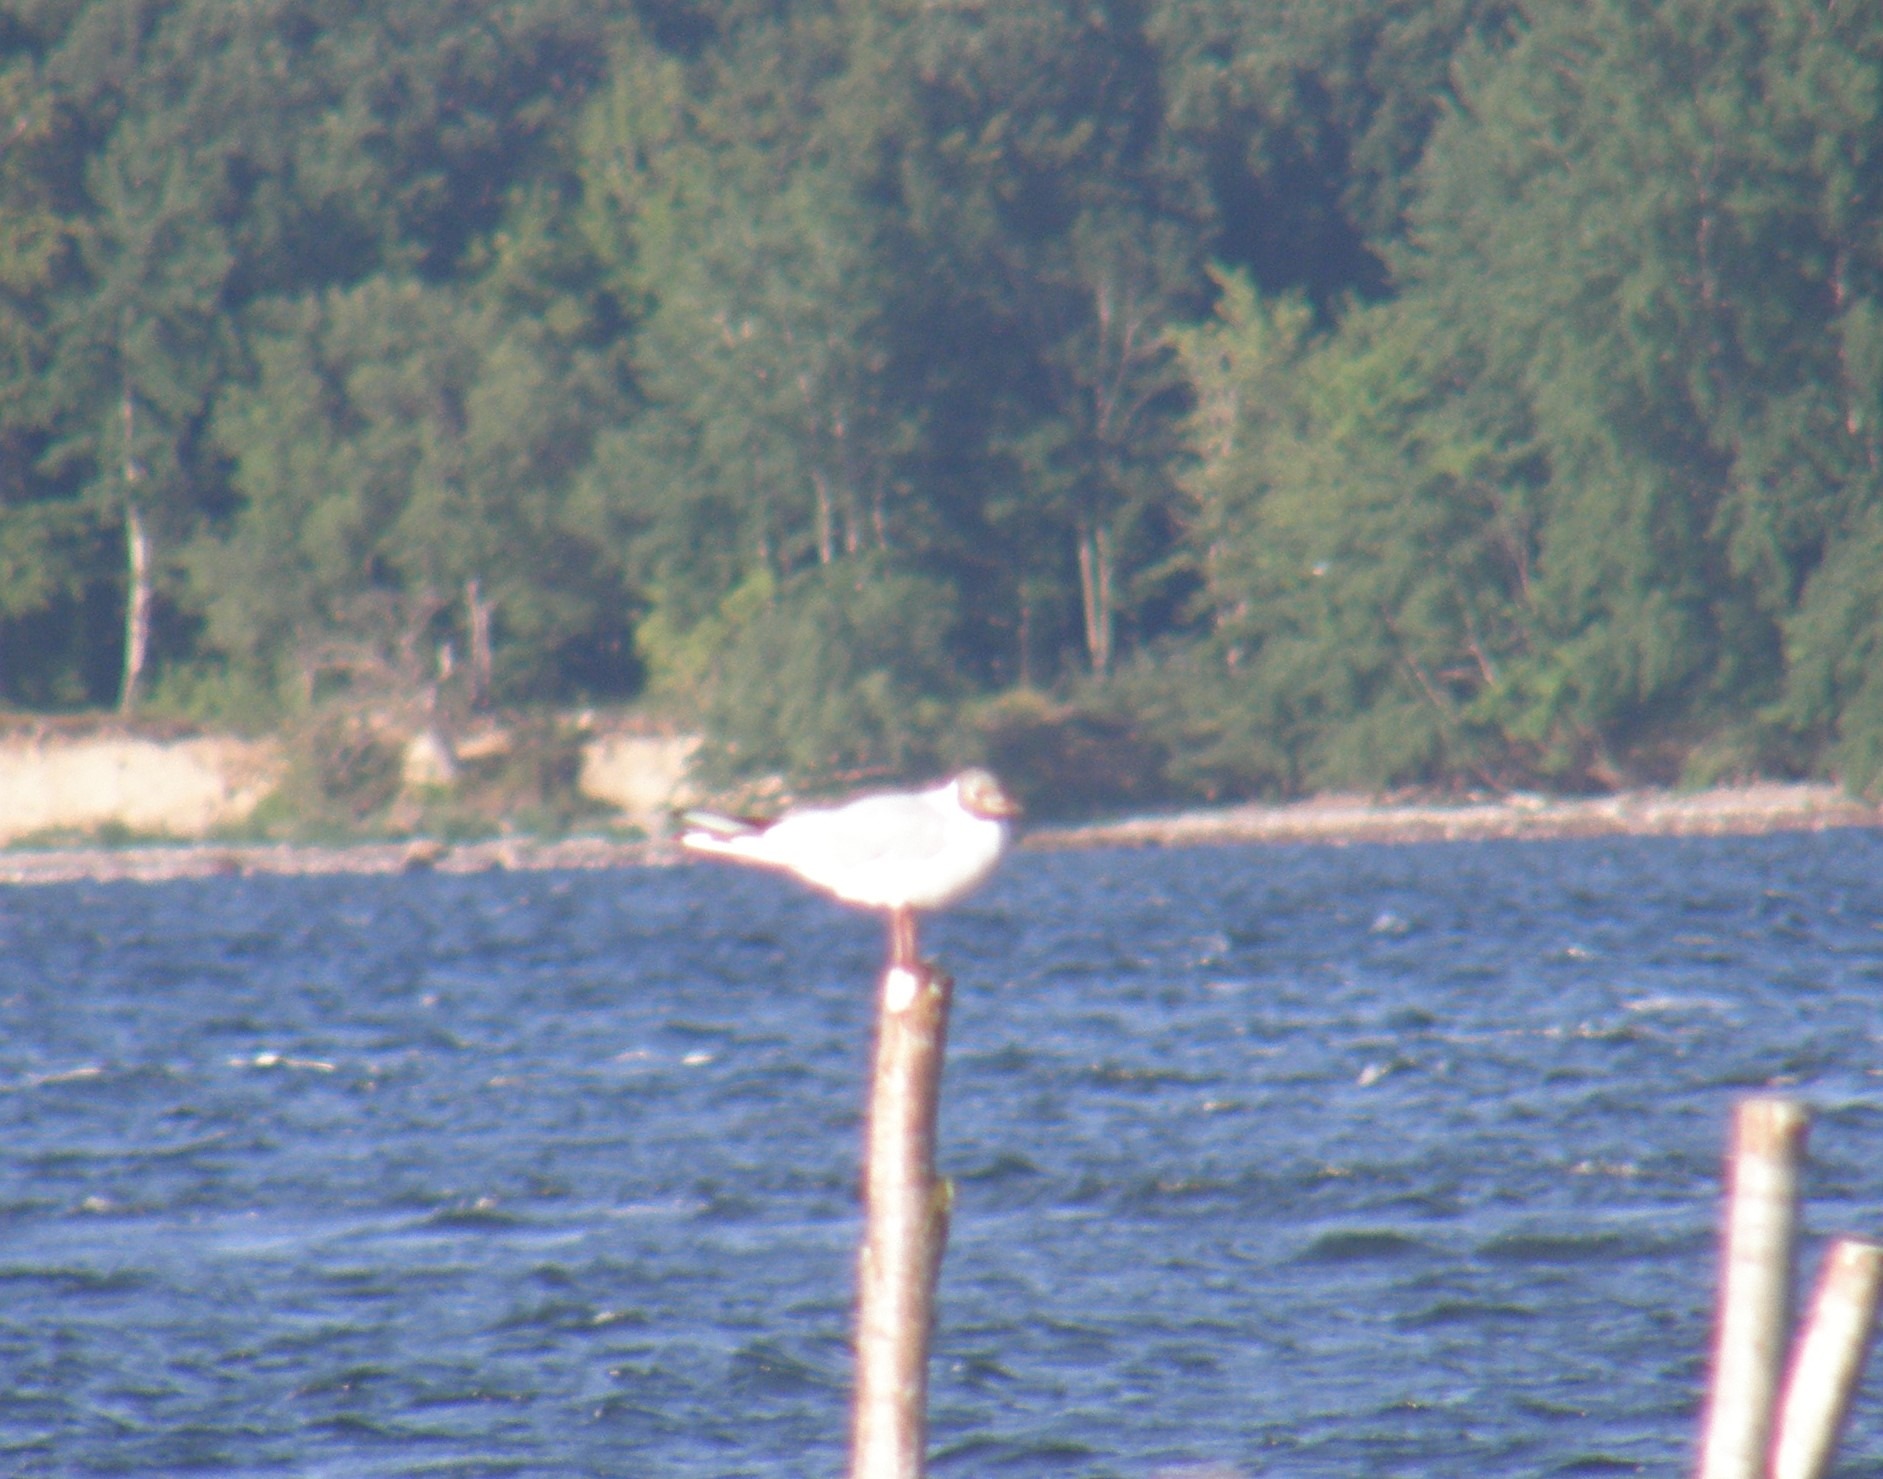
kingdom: Animalia
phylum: Chordata
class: Aves
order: Charadriiformes
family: Laridae
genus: Chroicocephalus
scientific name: Chroicocephalus ridibundus
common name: Hættemåge
